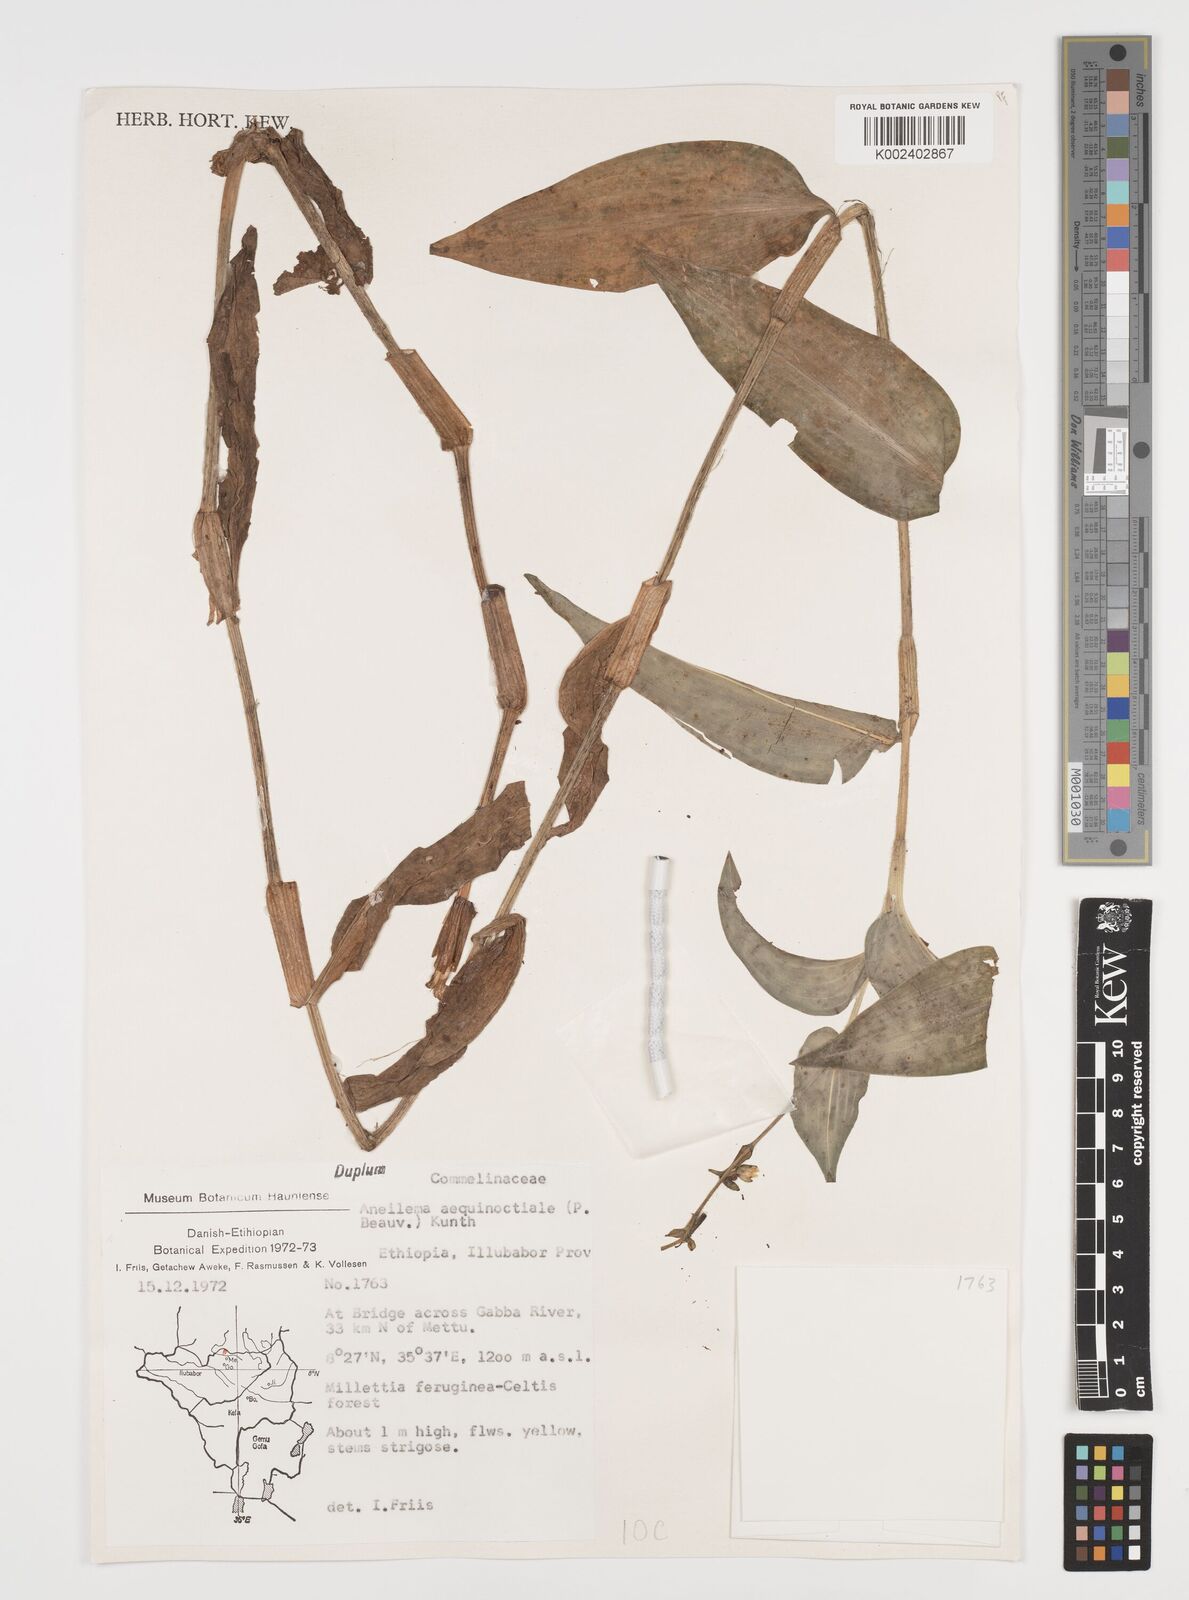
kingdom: Plantae
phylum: Tracheophyta
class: Liliopsida
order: Commelinales
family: Commelinaceae
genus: Aneilema
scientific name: Aneilema aequinoctiale
